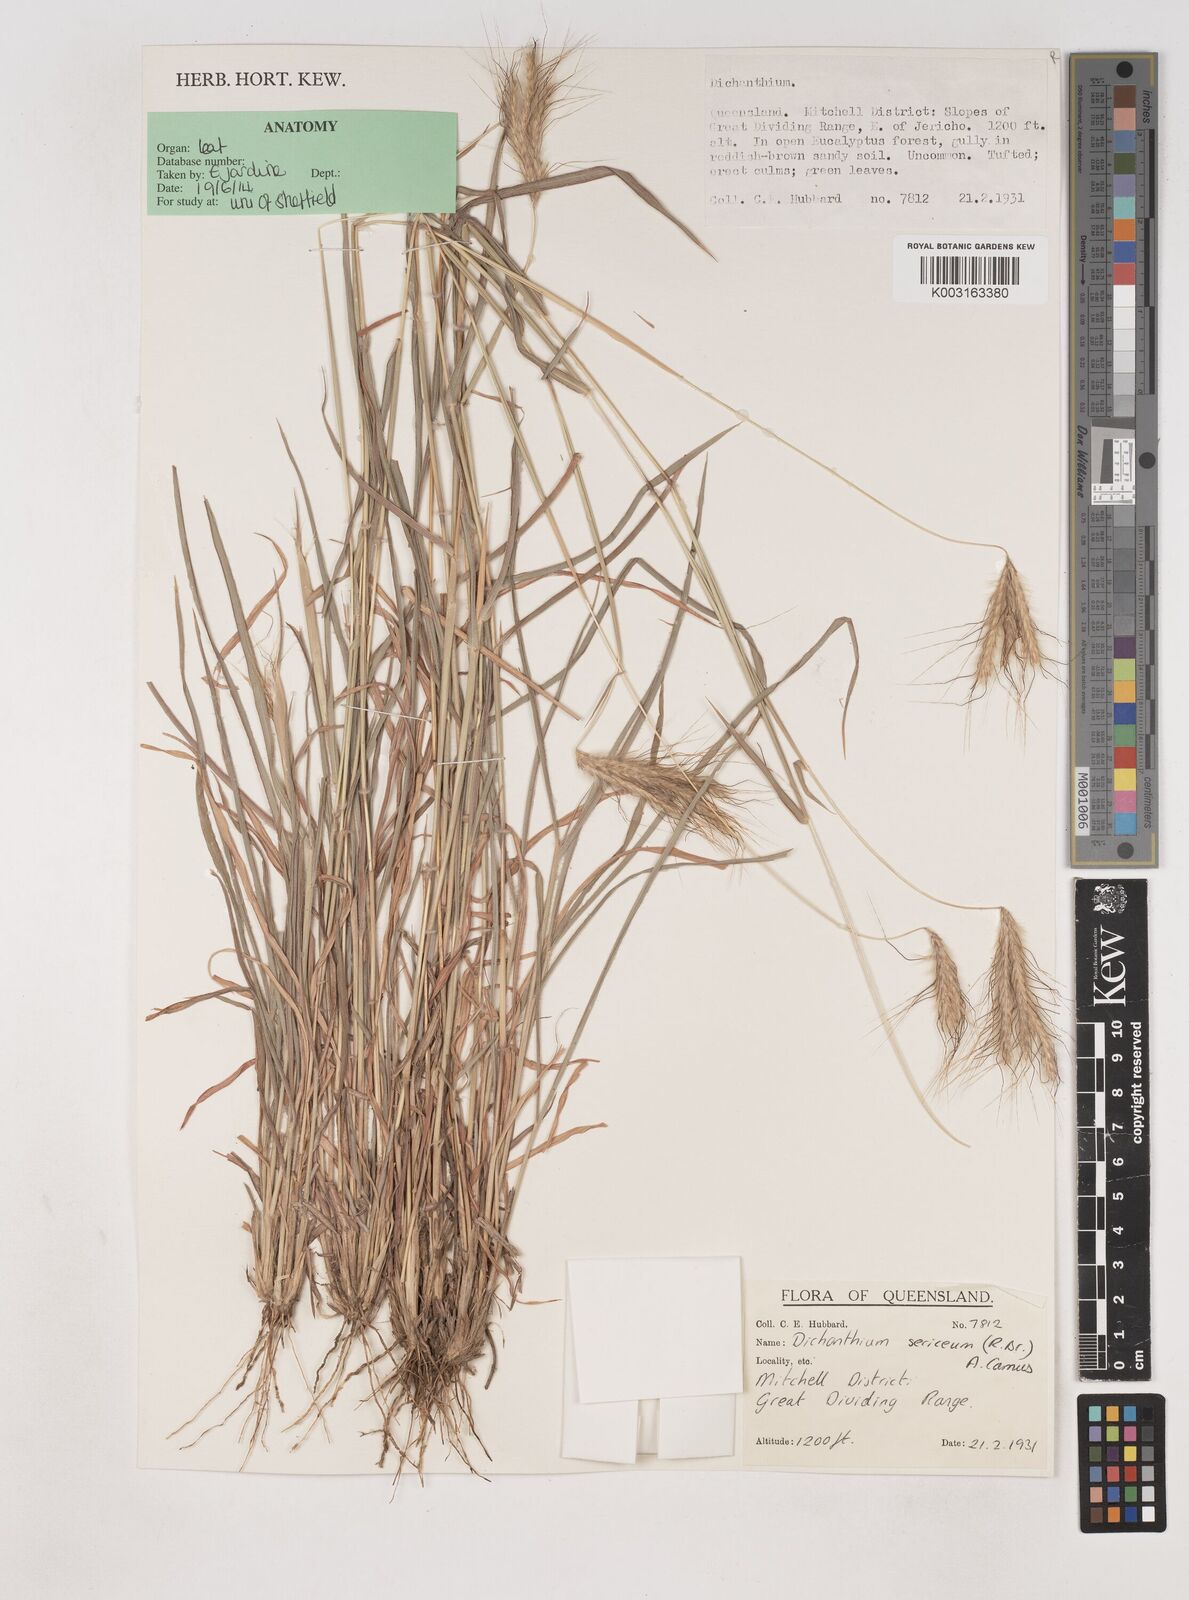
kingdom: Plantae
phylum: Tracheophyta
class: Liliopsida
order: Poales
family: Poaceae
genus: Dichanthium
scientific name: Dichanthium sericeum
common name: Silky bluestem
